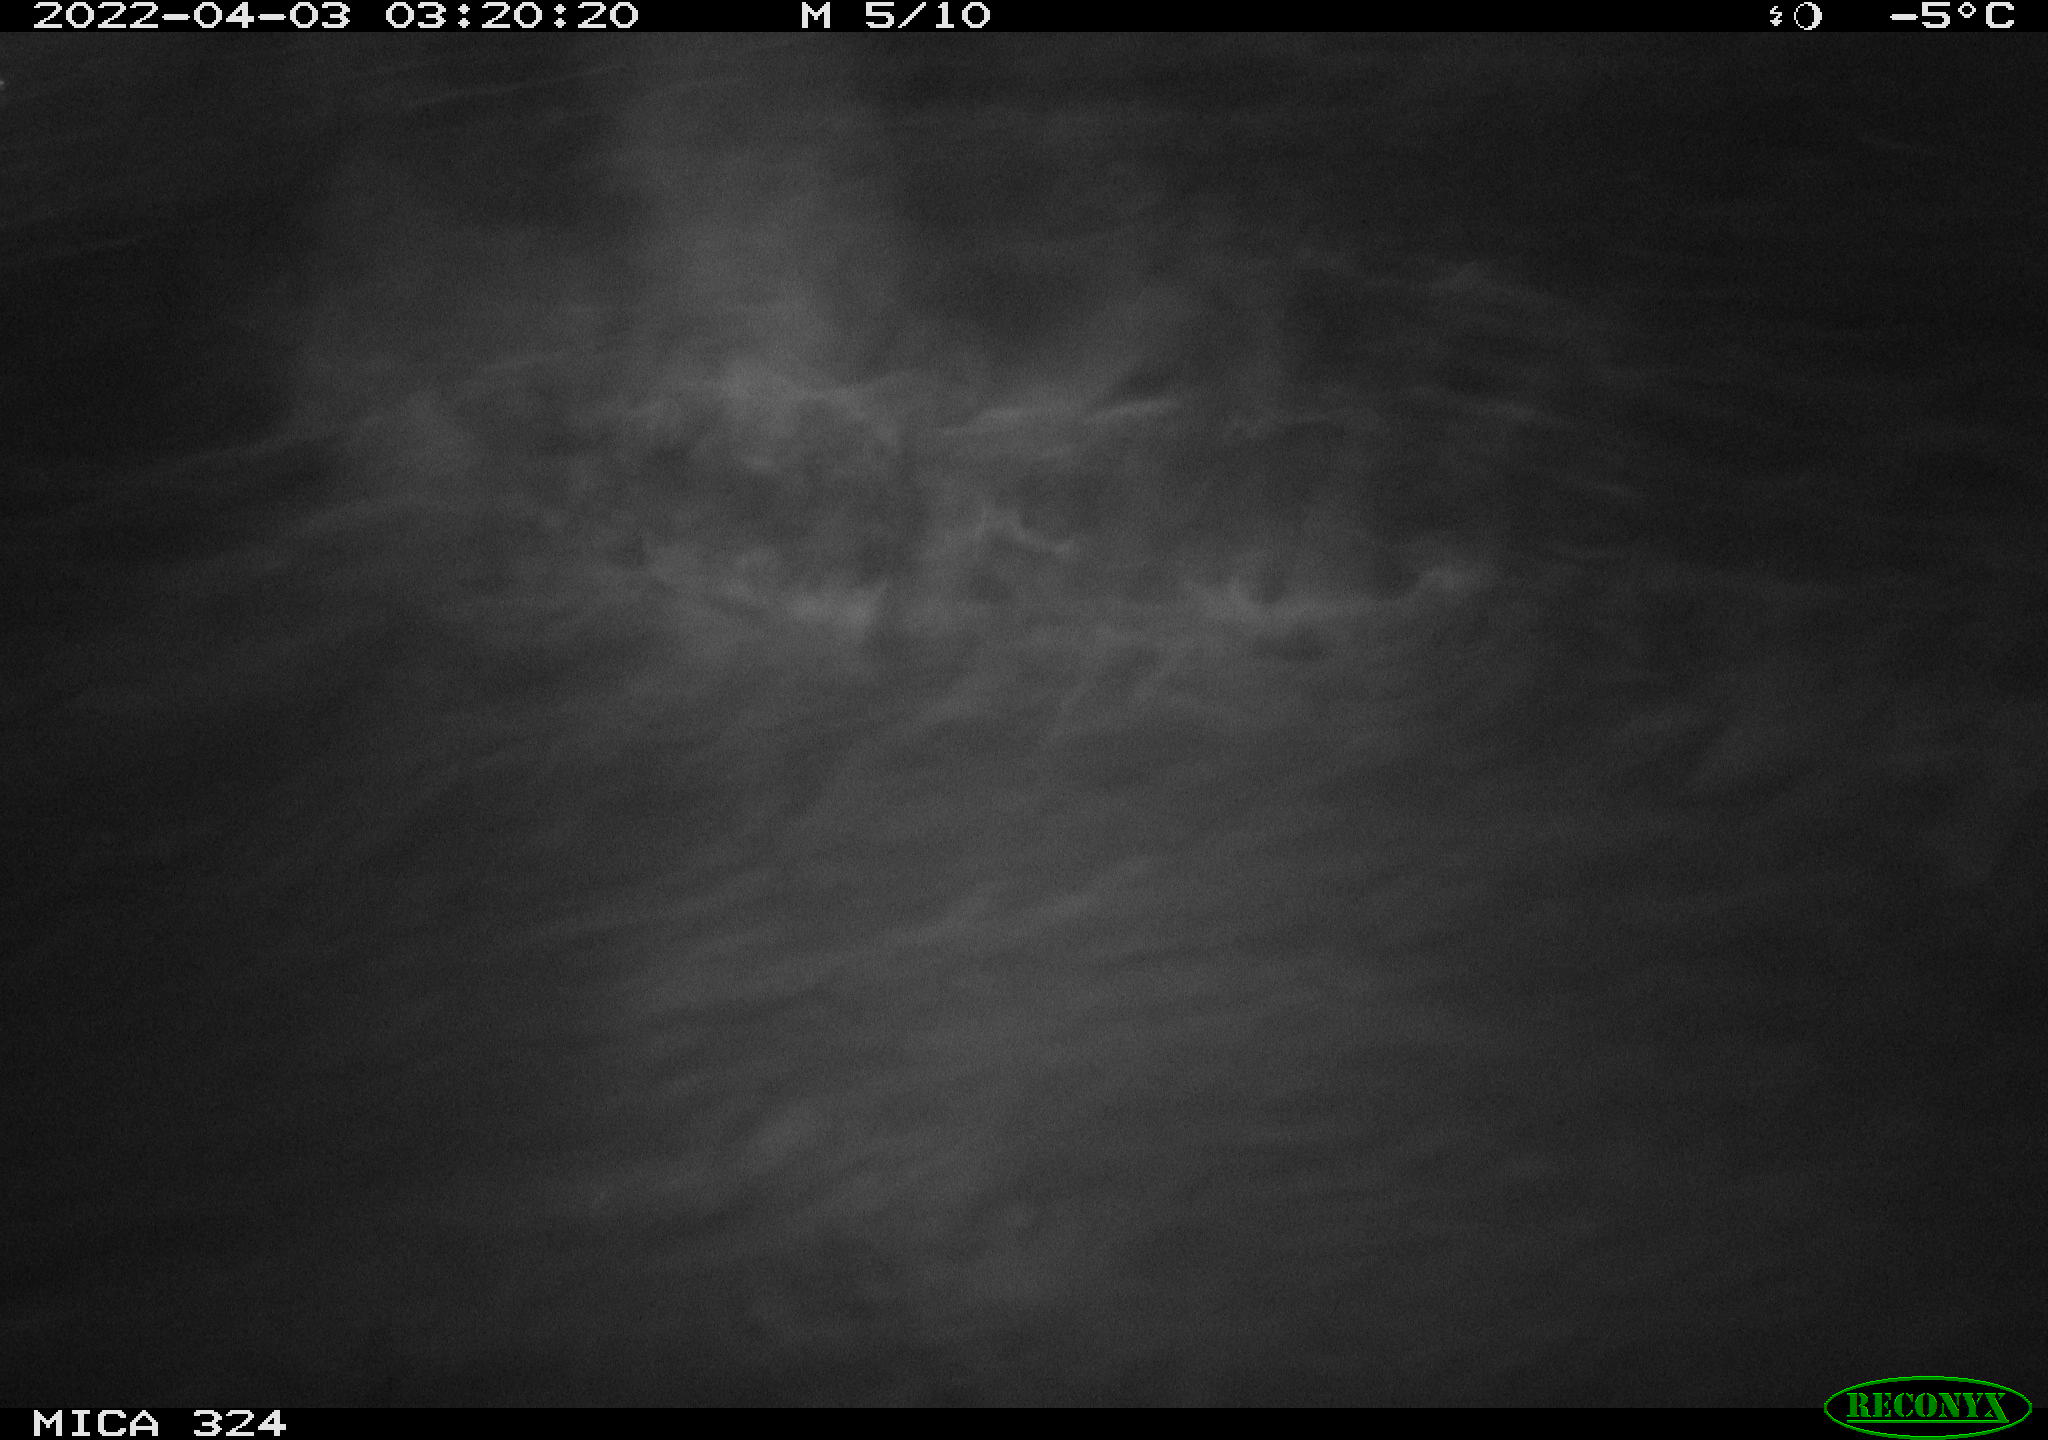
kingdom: Animalia
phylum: Chordata
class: Mammalia
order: Rodentia
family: Cricetidae
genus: Ondatra
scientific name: Ondatra zibethicus
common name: Muskrat
